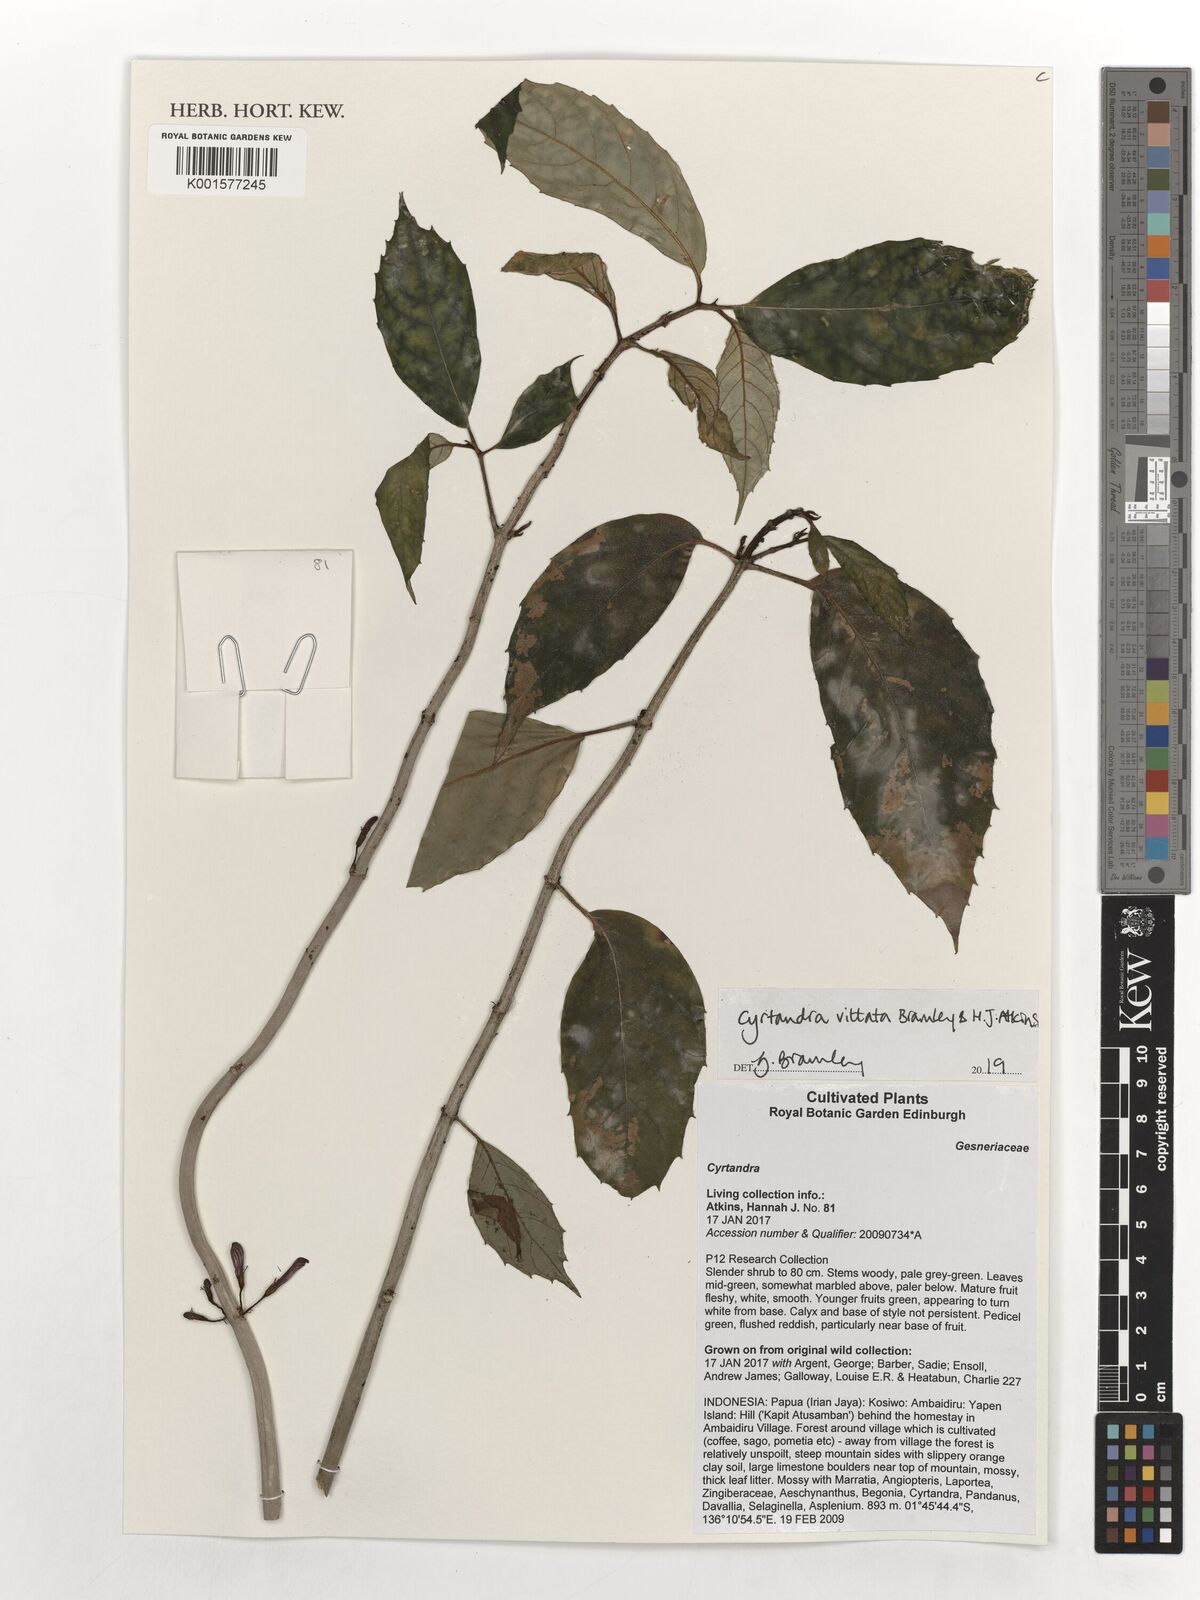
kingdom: Plantae
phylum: Tracheophyta
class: Magnoliopsida
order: Lamiales
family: Gesneriaceae
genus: Cyrtandra
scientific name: Cyrtandra vittata
